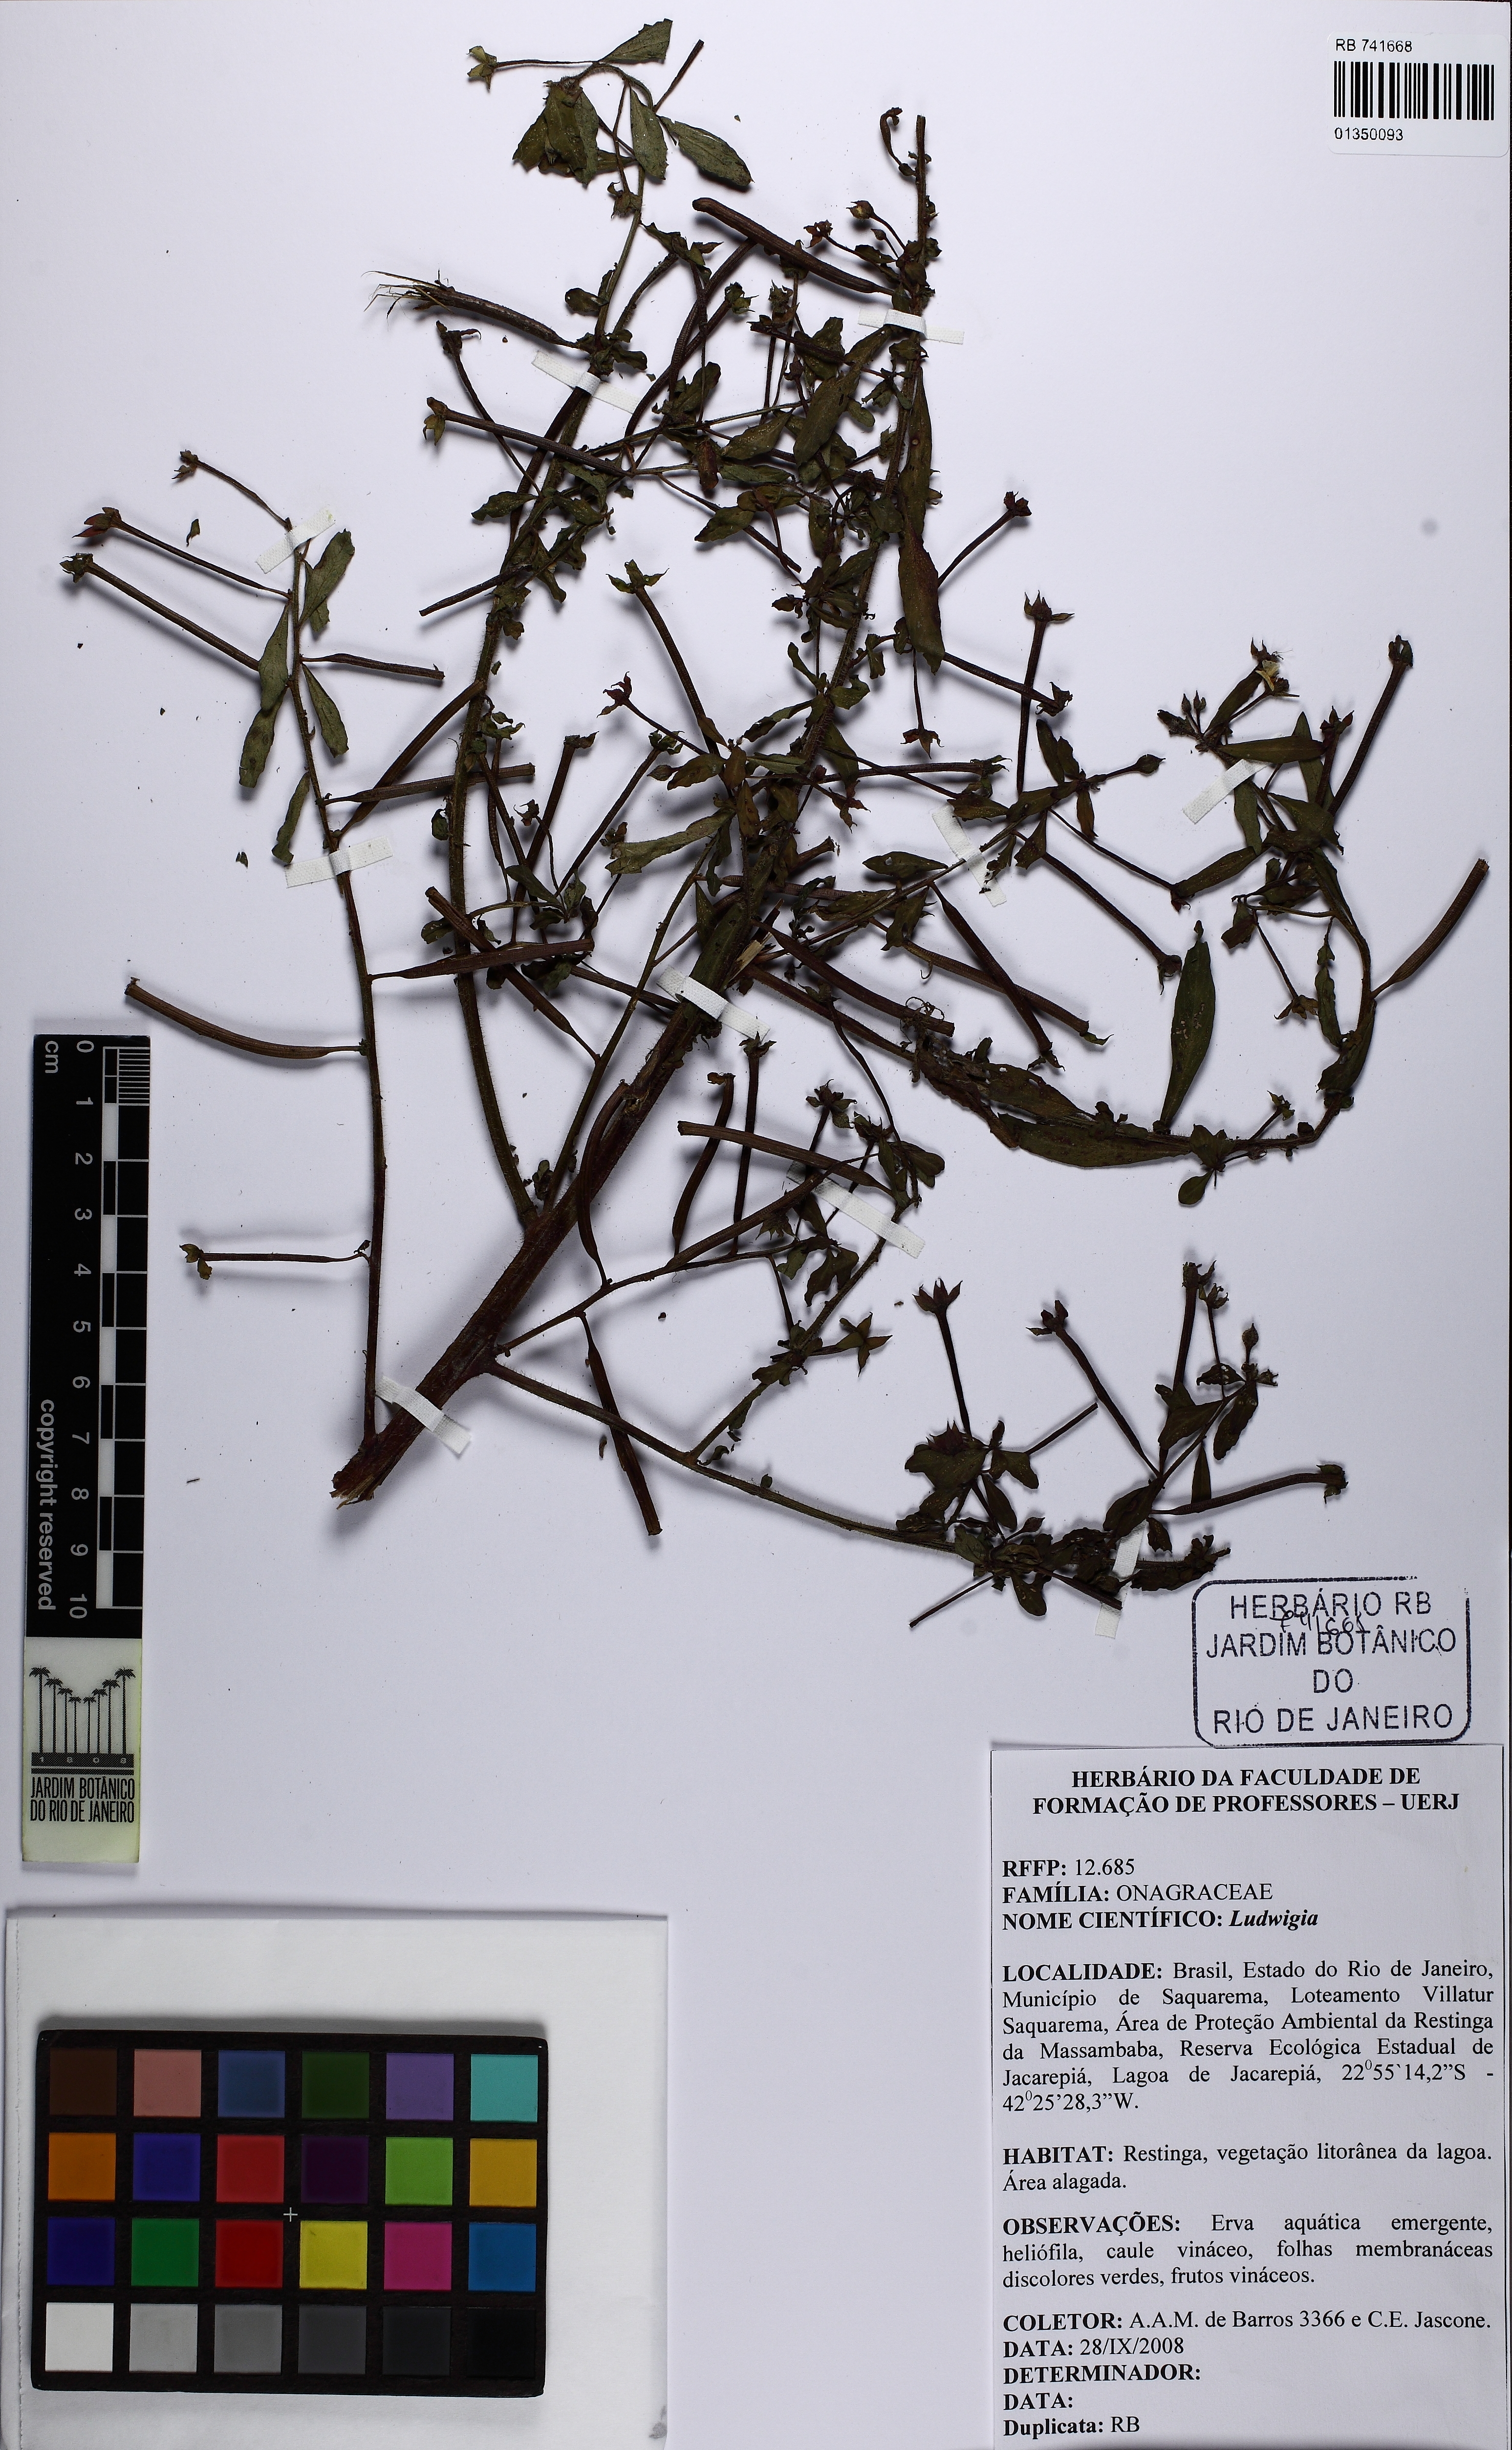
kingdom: Plantae
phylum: Tracheophyta
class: Magnoliopsida
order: Myrtales
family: Onagraceae
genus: Ludwigia
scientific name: Ludwigia
